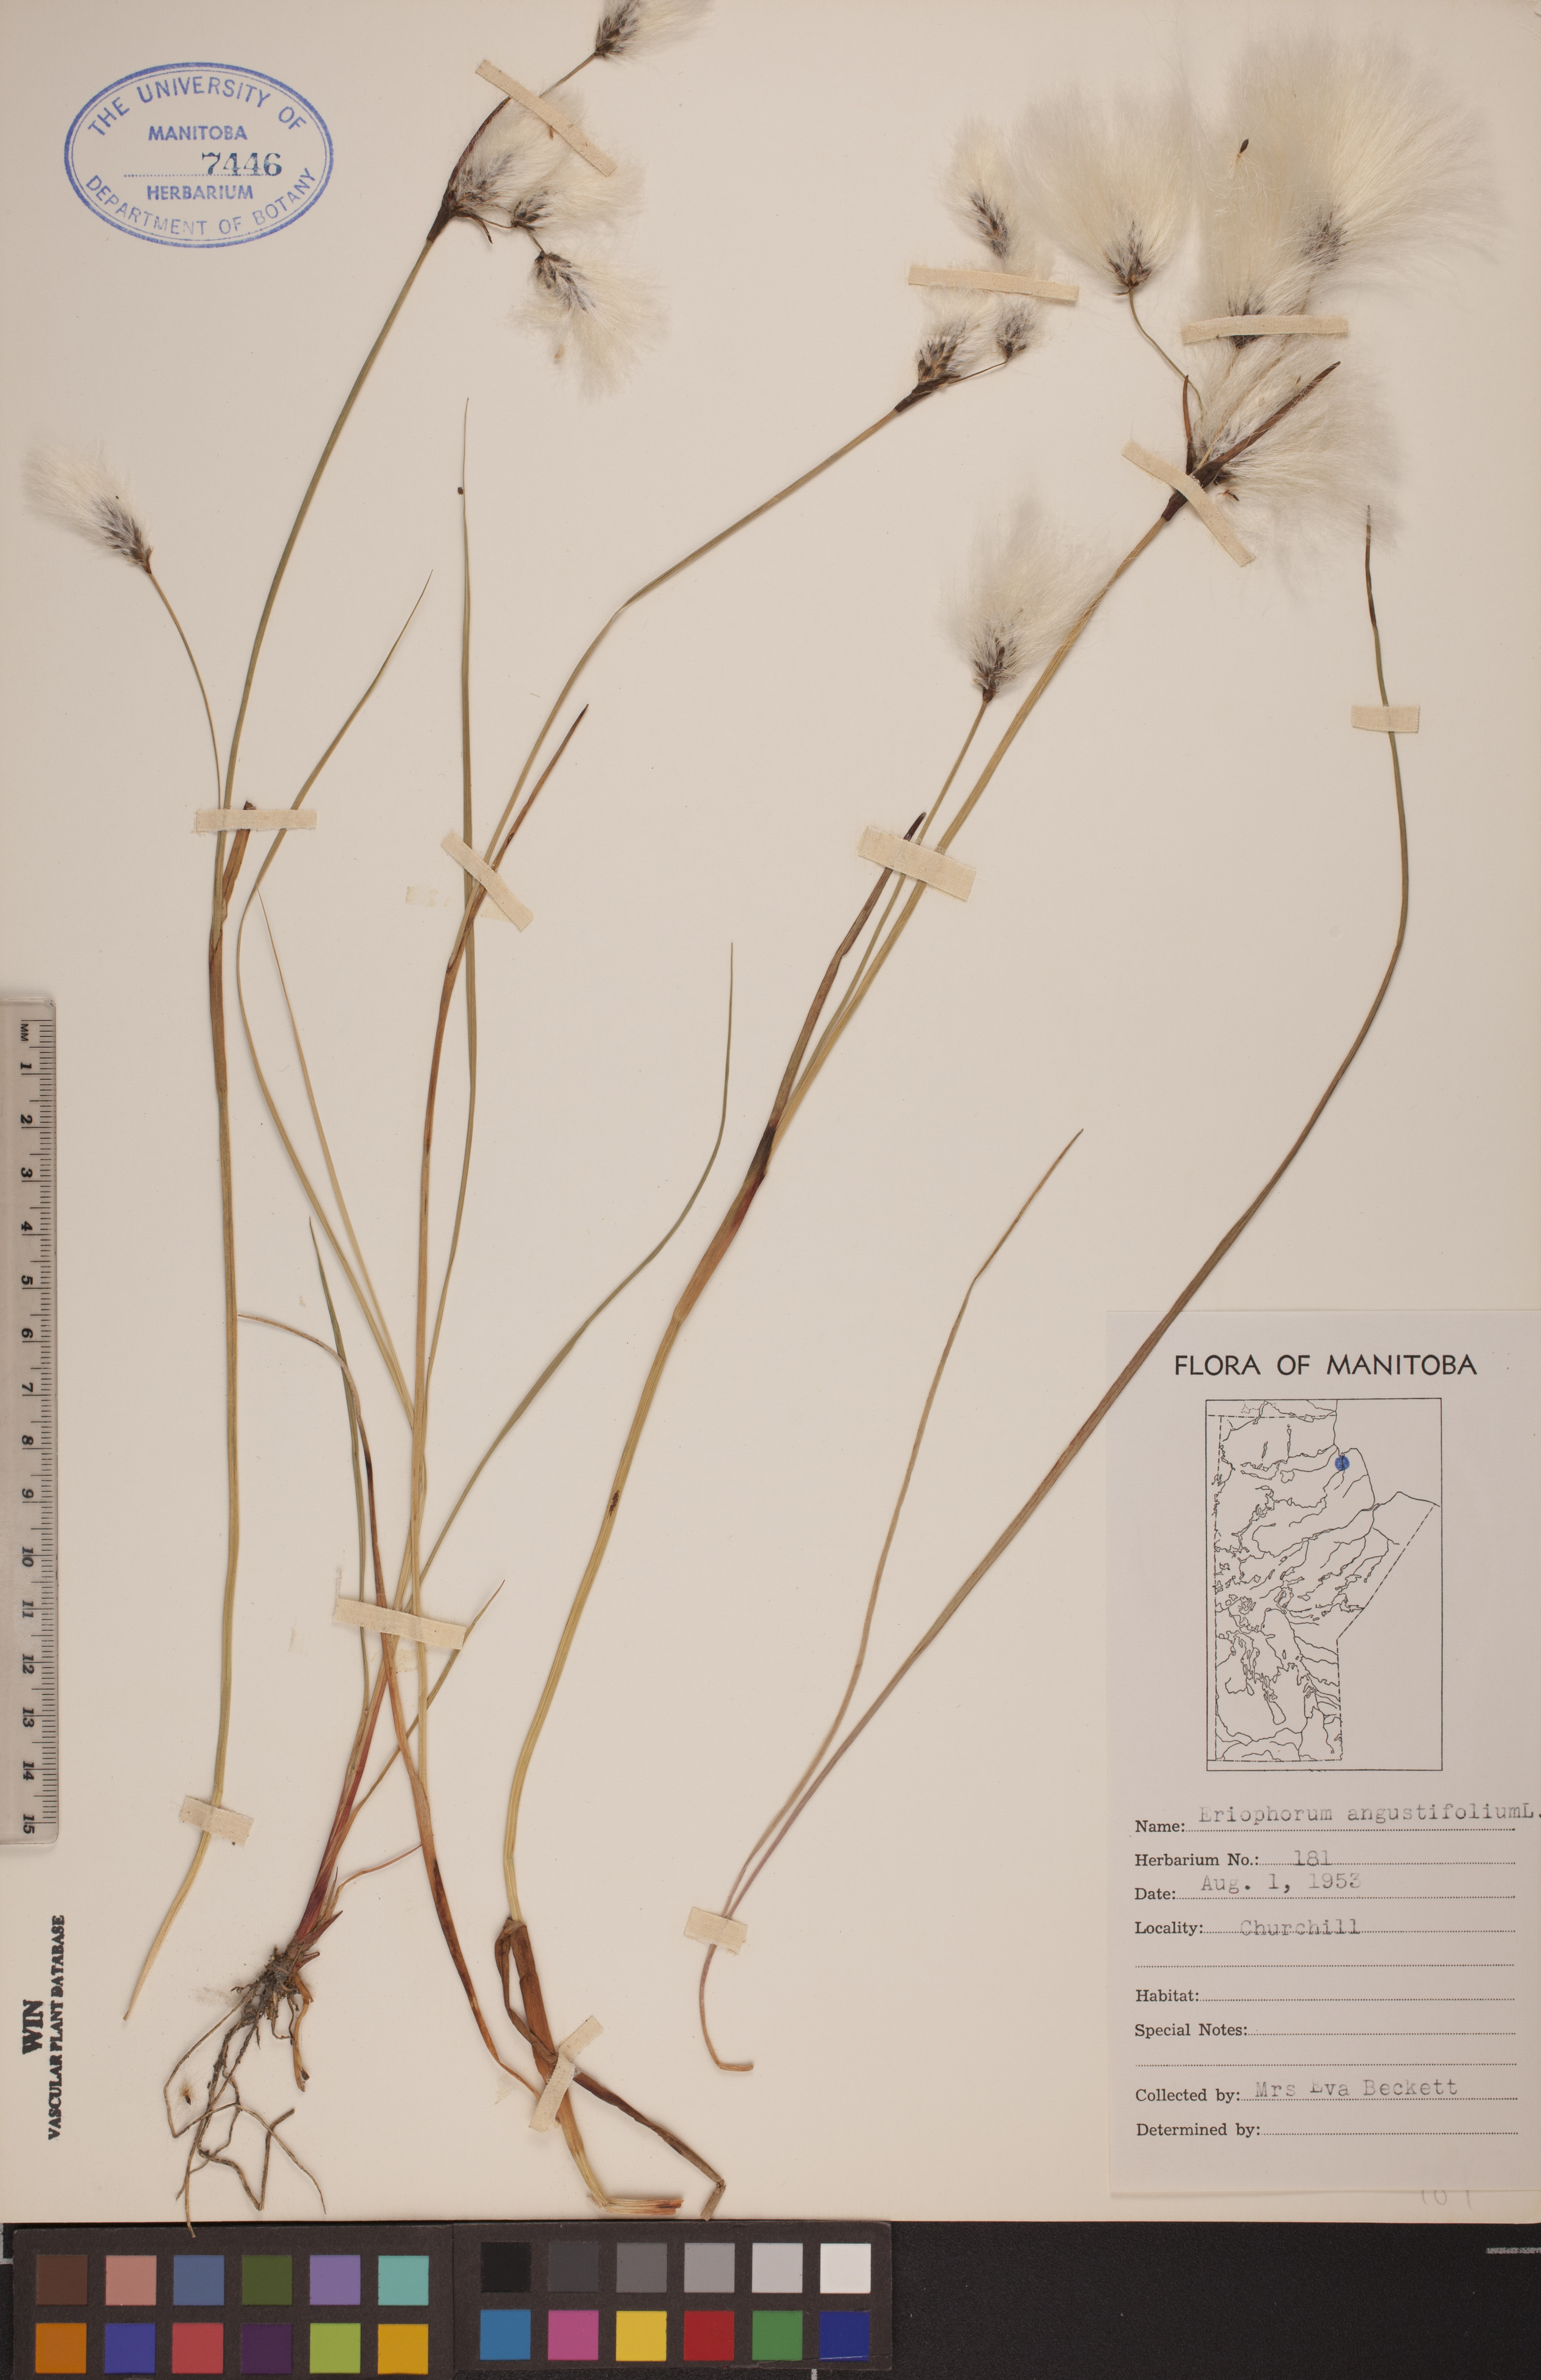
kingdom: Plantae
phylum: Tracheophyta
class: Liliopsida
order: Poales
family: Cyperaceae
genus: Eriophorum
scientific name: Eriophorum angustifolium
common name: Common cottongrass
